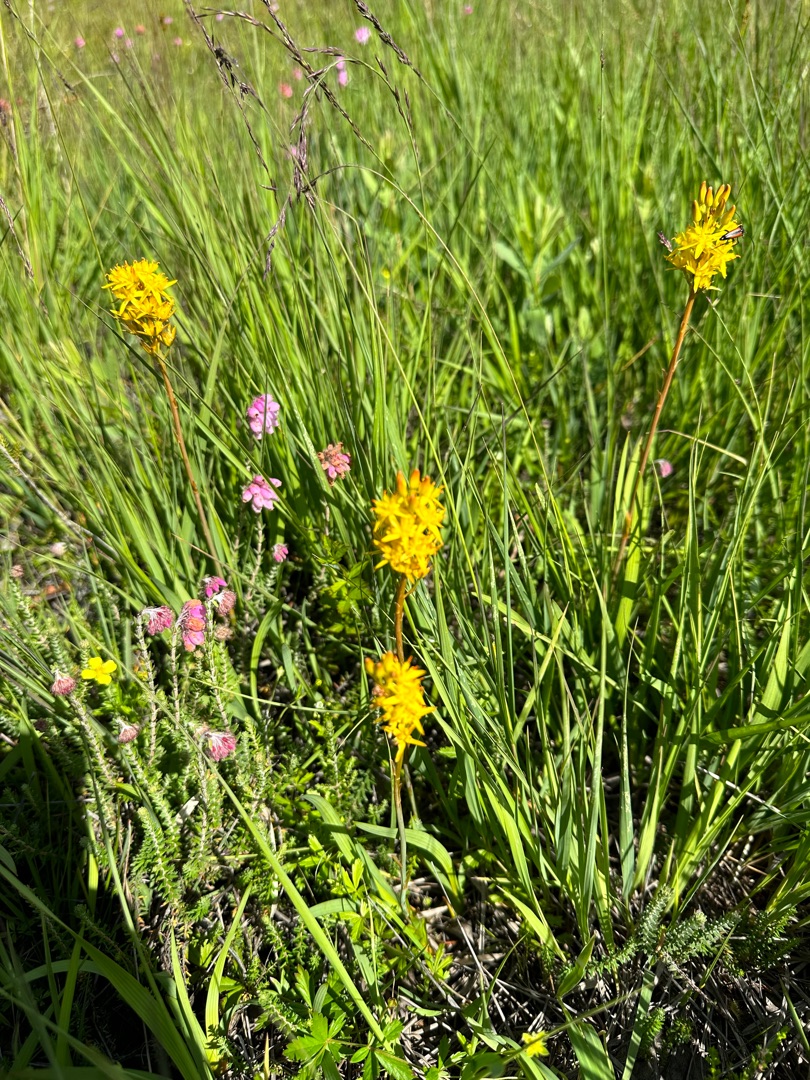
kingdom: Plantae
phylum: Tracheophyta
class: Liliopsida
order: Dioscoreales
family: Nartheciaceae
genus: Narthecium
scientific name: Narthecium ossifragum
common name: Benbræk
